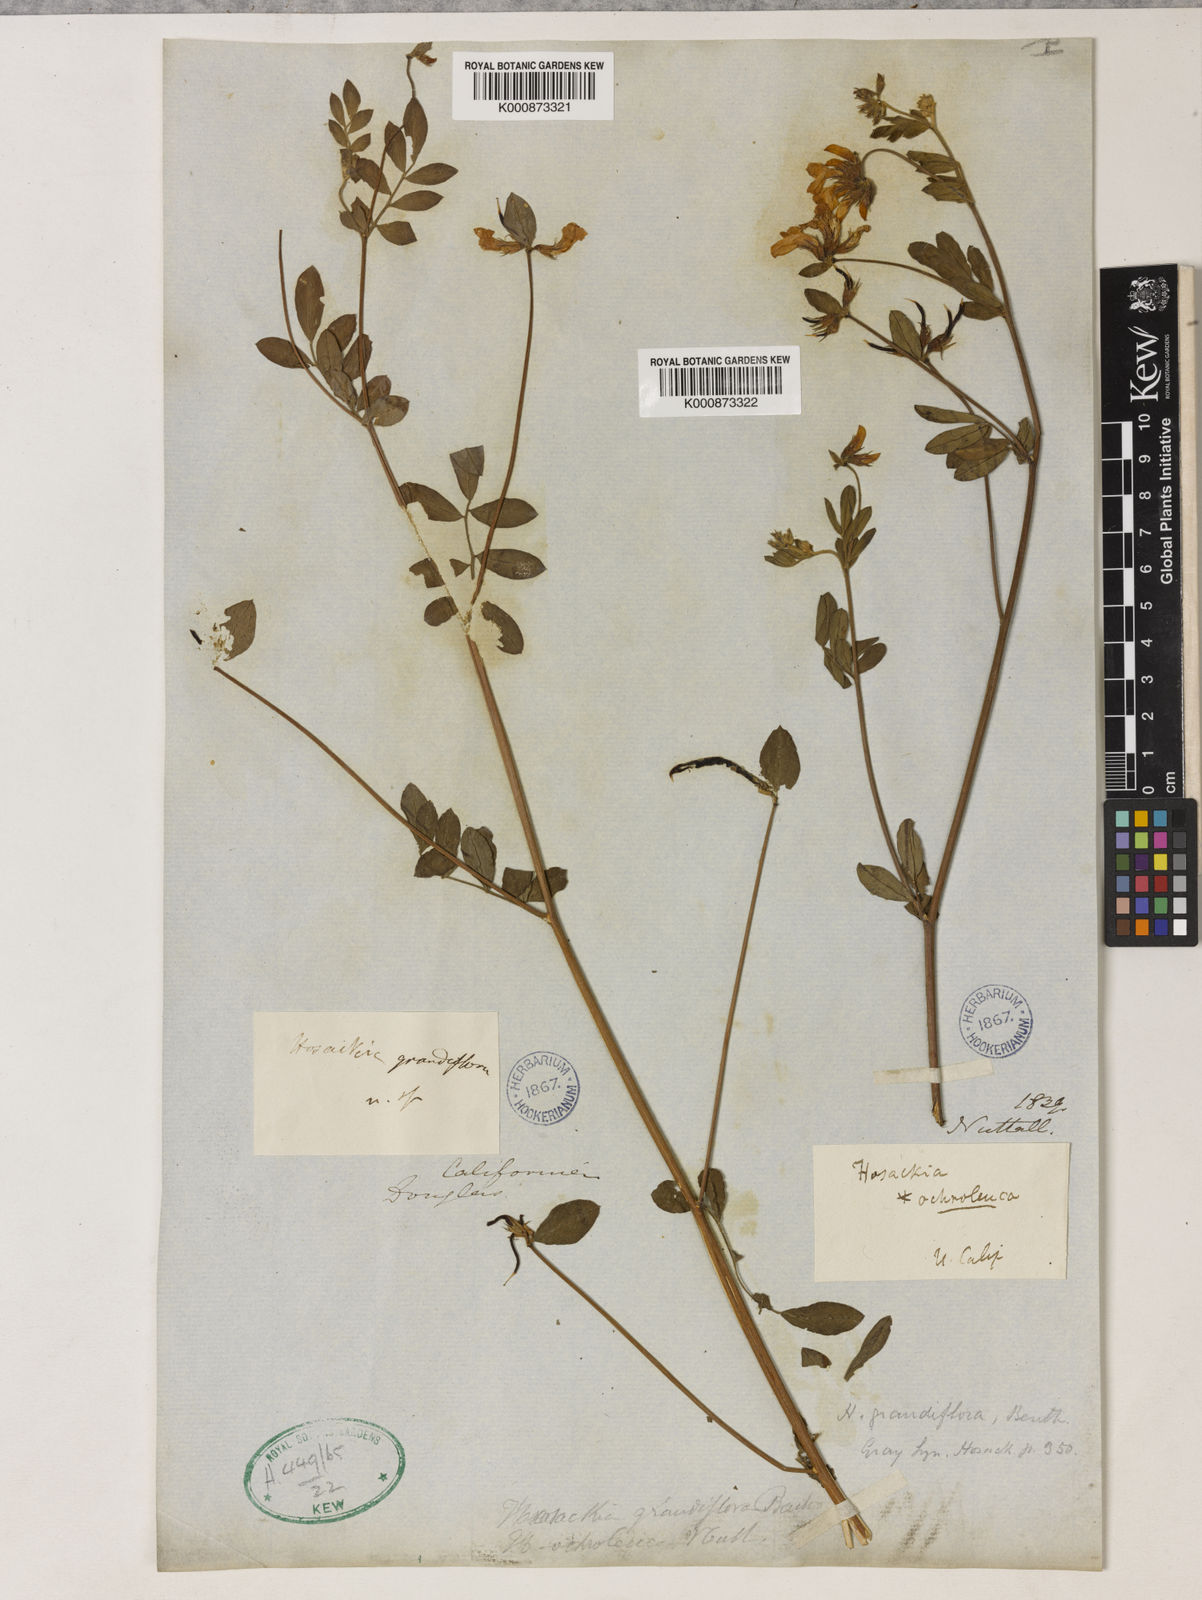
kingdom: Plantae
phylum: Tracheophyta
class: Magnoliopsida
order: Fabales
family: Fabaceae
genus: Acmispon
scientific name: Acmispon grandiflorus
